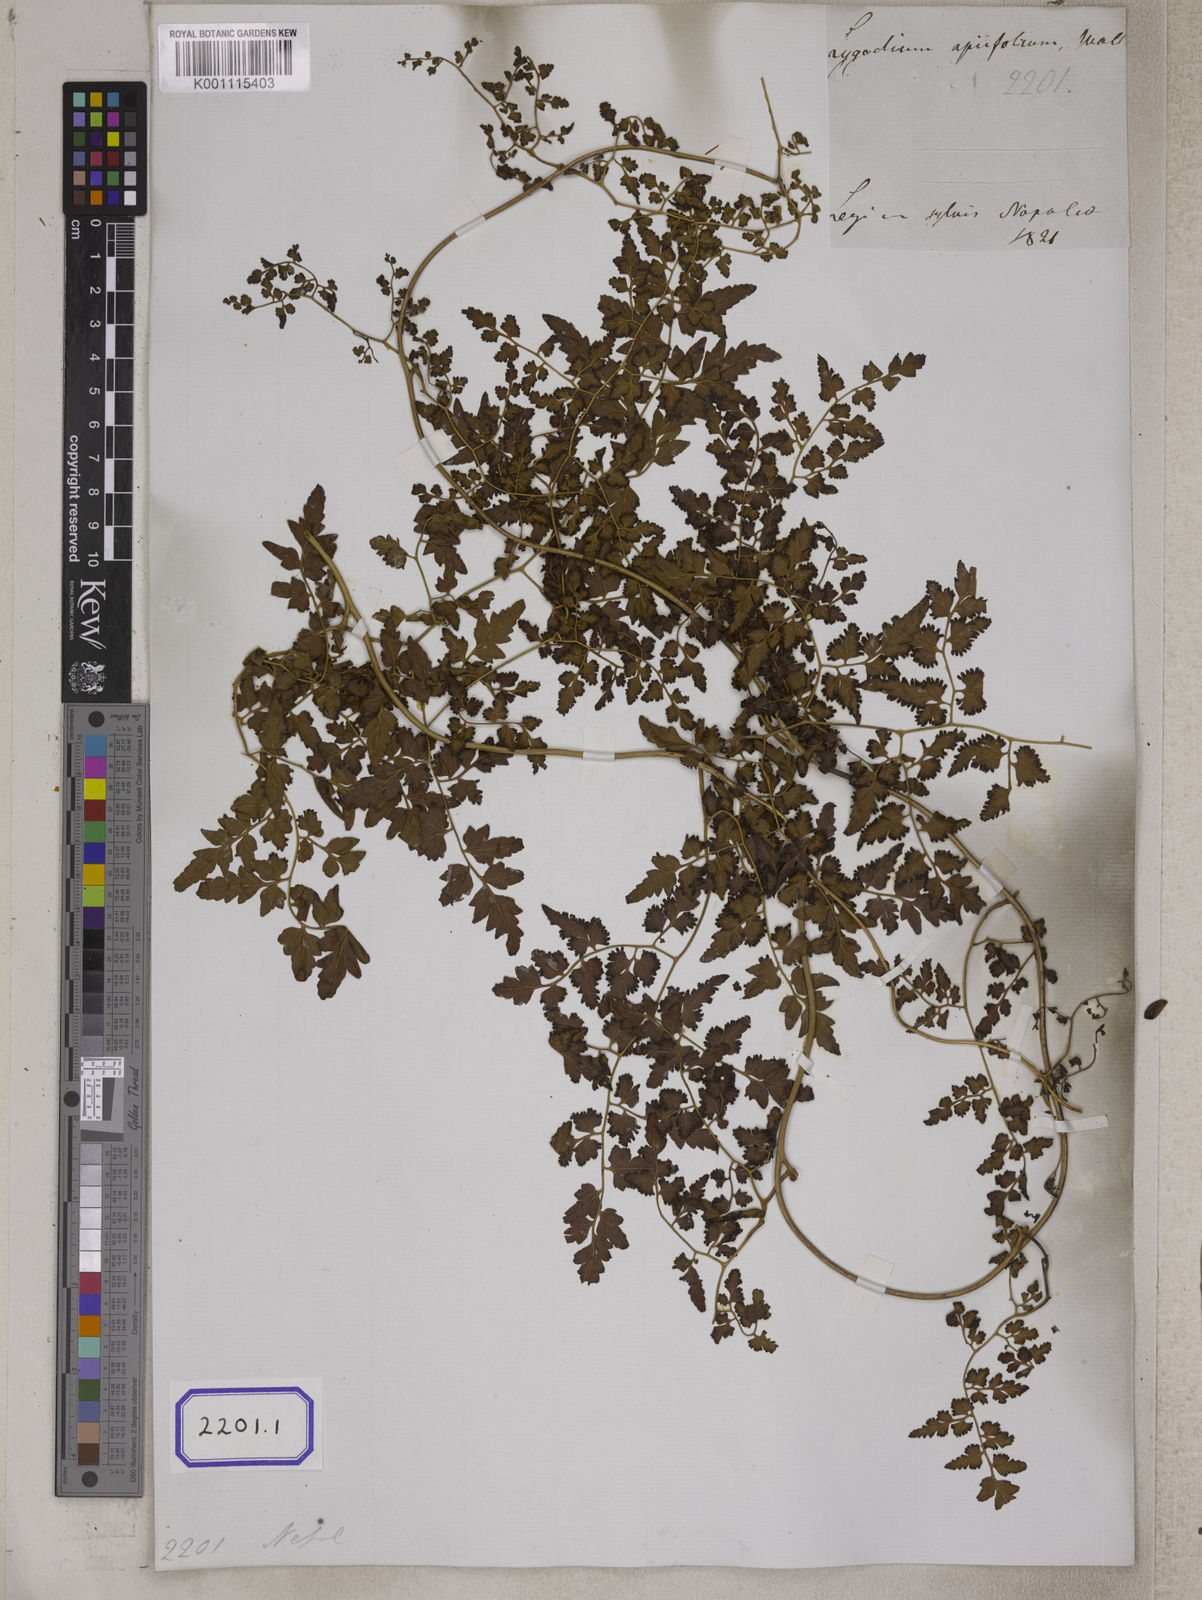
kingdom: Plantae
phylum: Tracheophyta
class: Polypodiopsida
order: Schizaeales
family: Lygodiaceae
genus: Lygodium
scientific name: Lygodium
